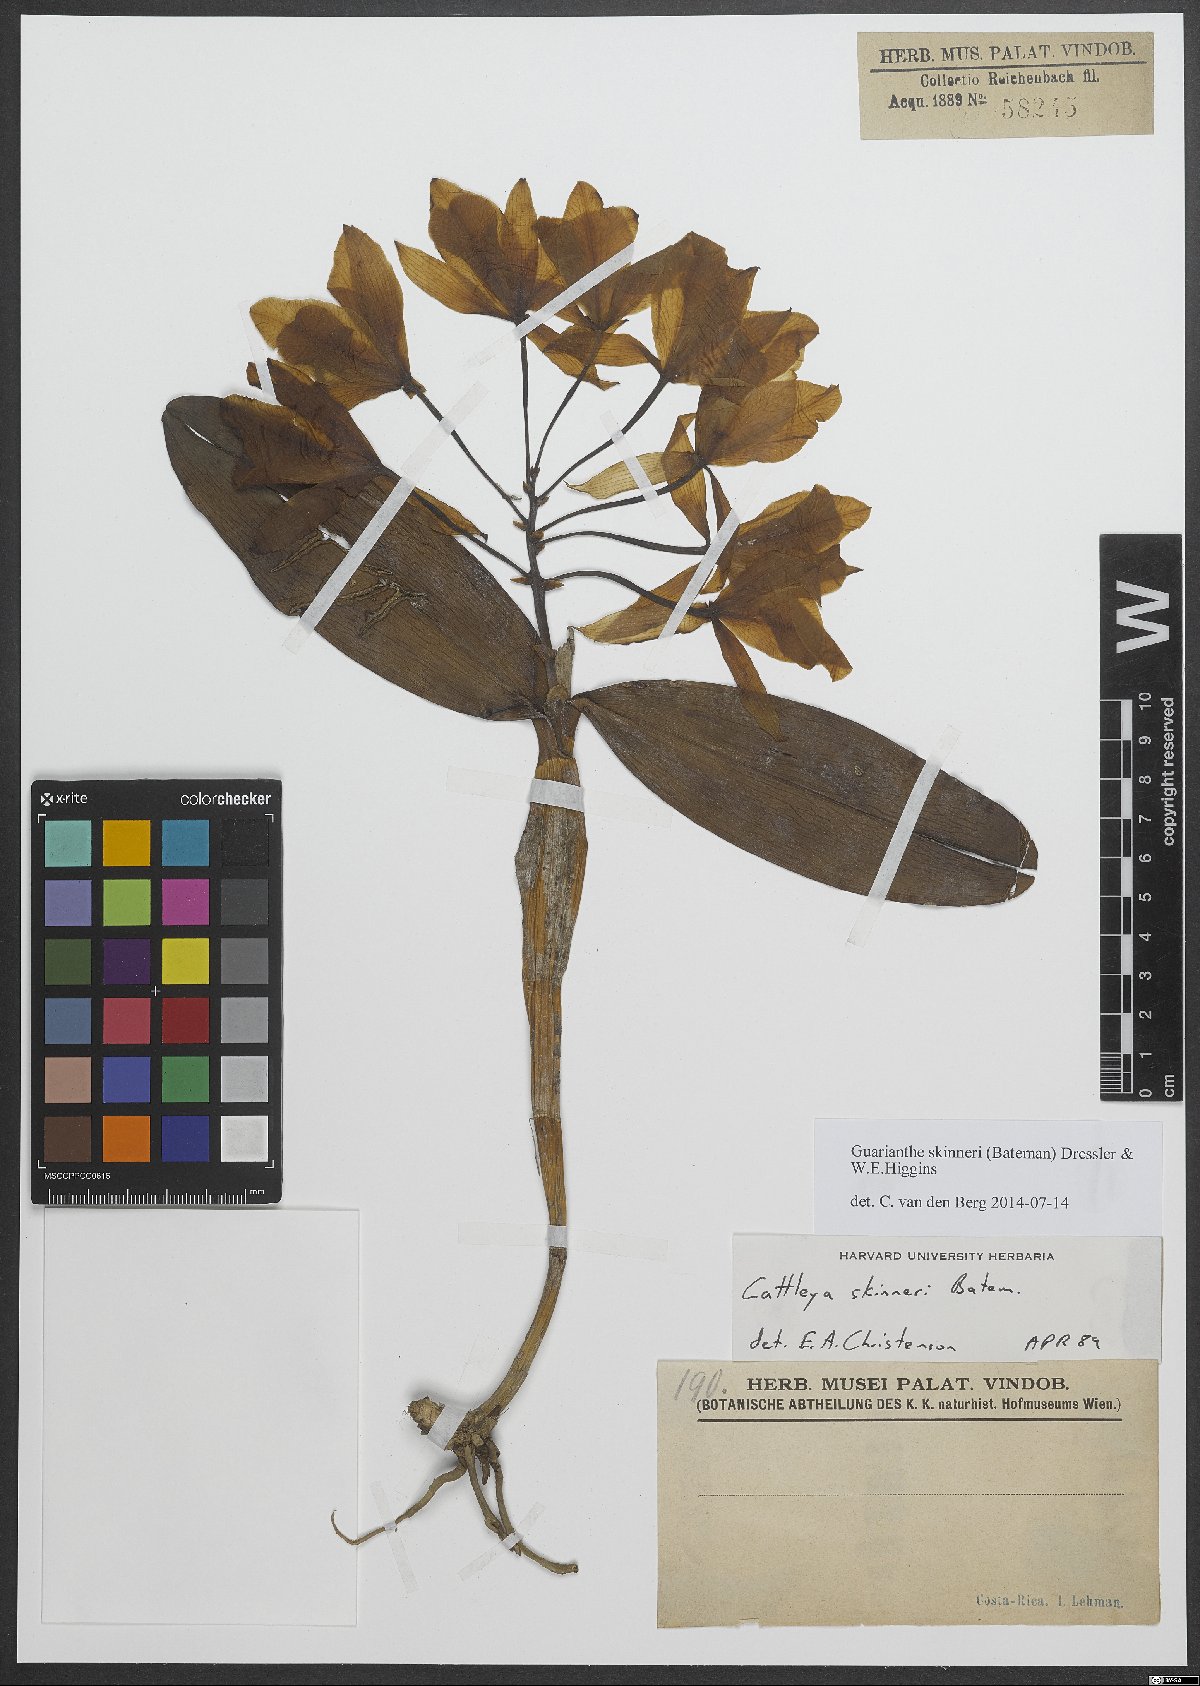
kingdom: Plantae
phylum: Tracheophyta
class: Liliopsida
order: Asparagales
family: Orchidaceae
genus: Guarianthe
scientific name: Guarianthe skinneri
